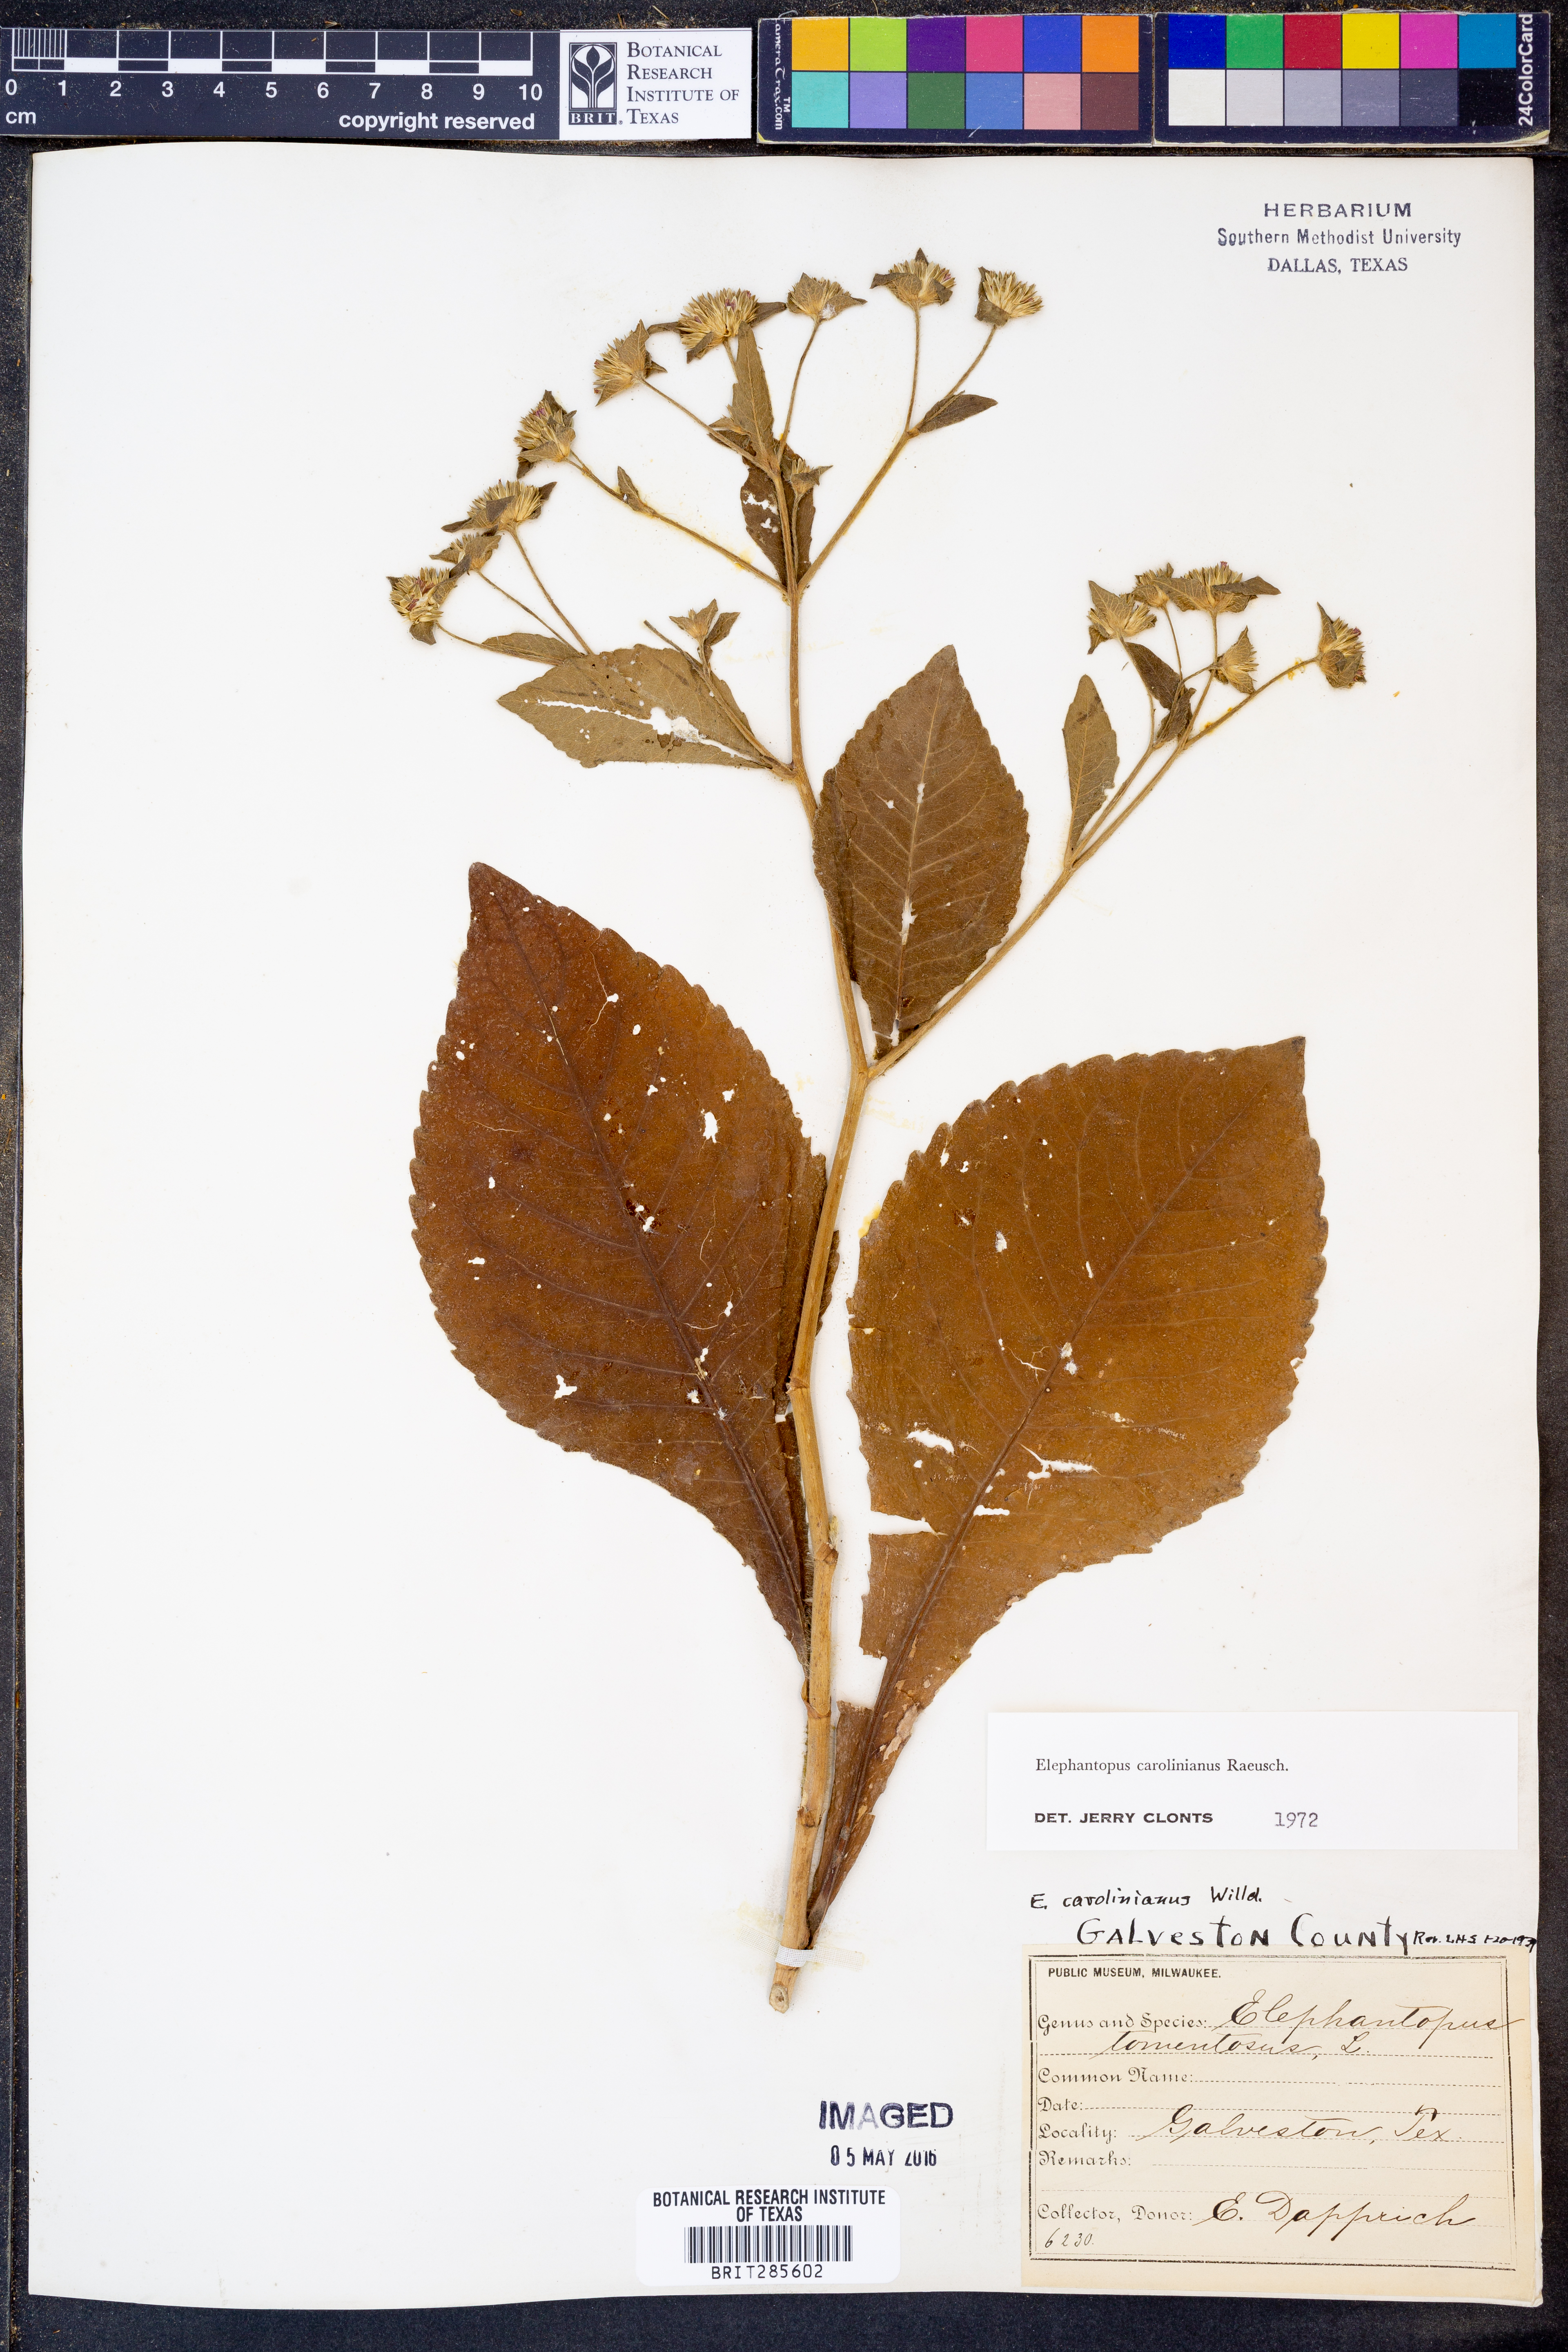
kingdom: Plantae
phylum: Tracheophyta
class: Magnoliopsida
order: Asterales
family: Asteraceae
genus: Elephantopus
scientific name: Elephantopus carolinianus
